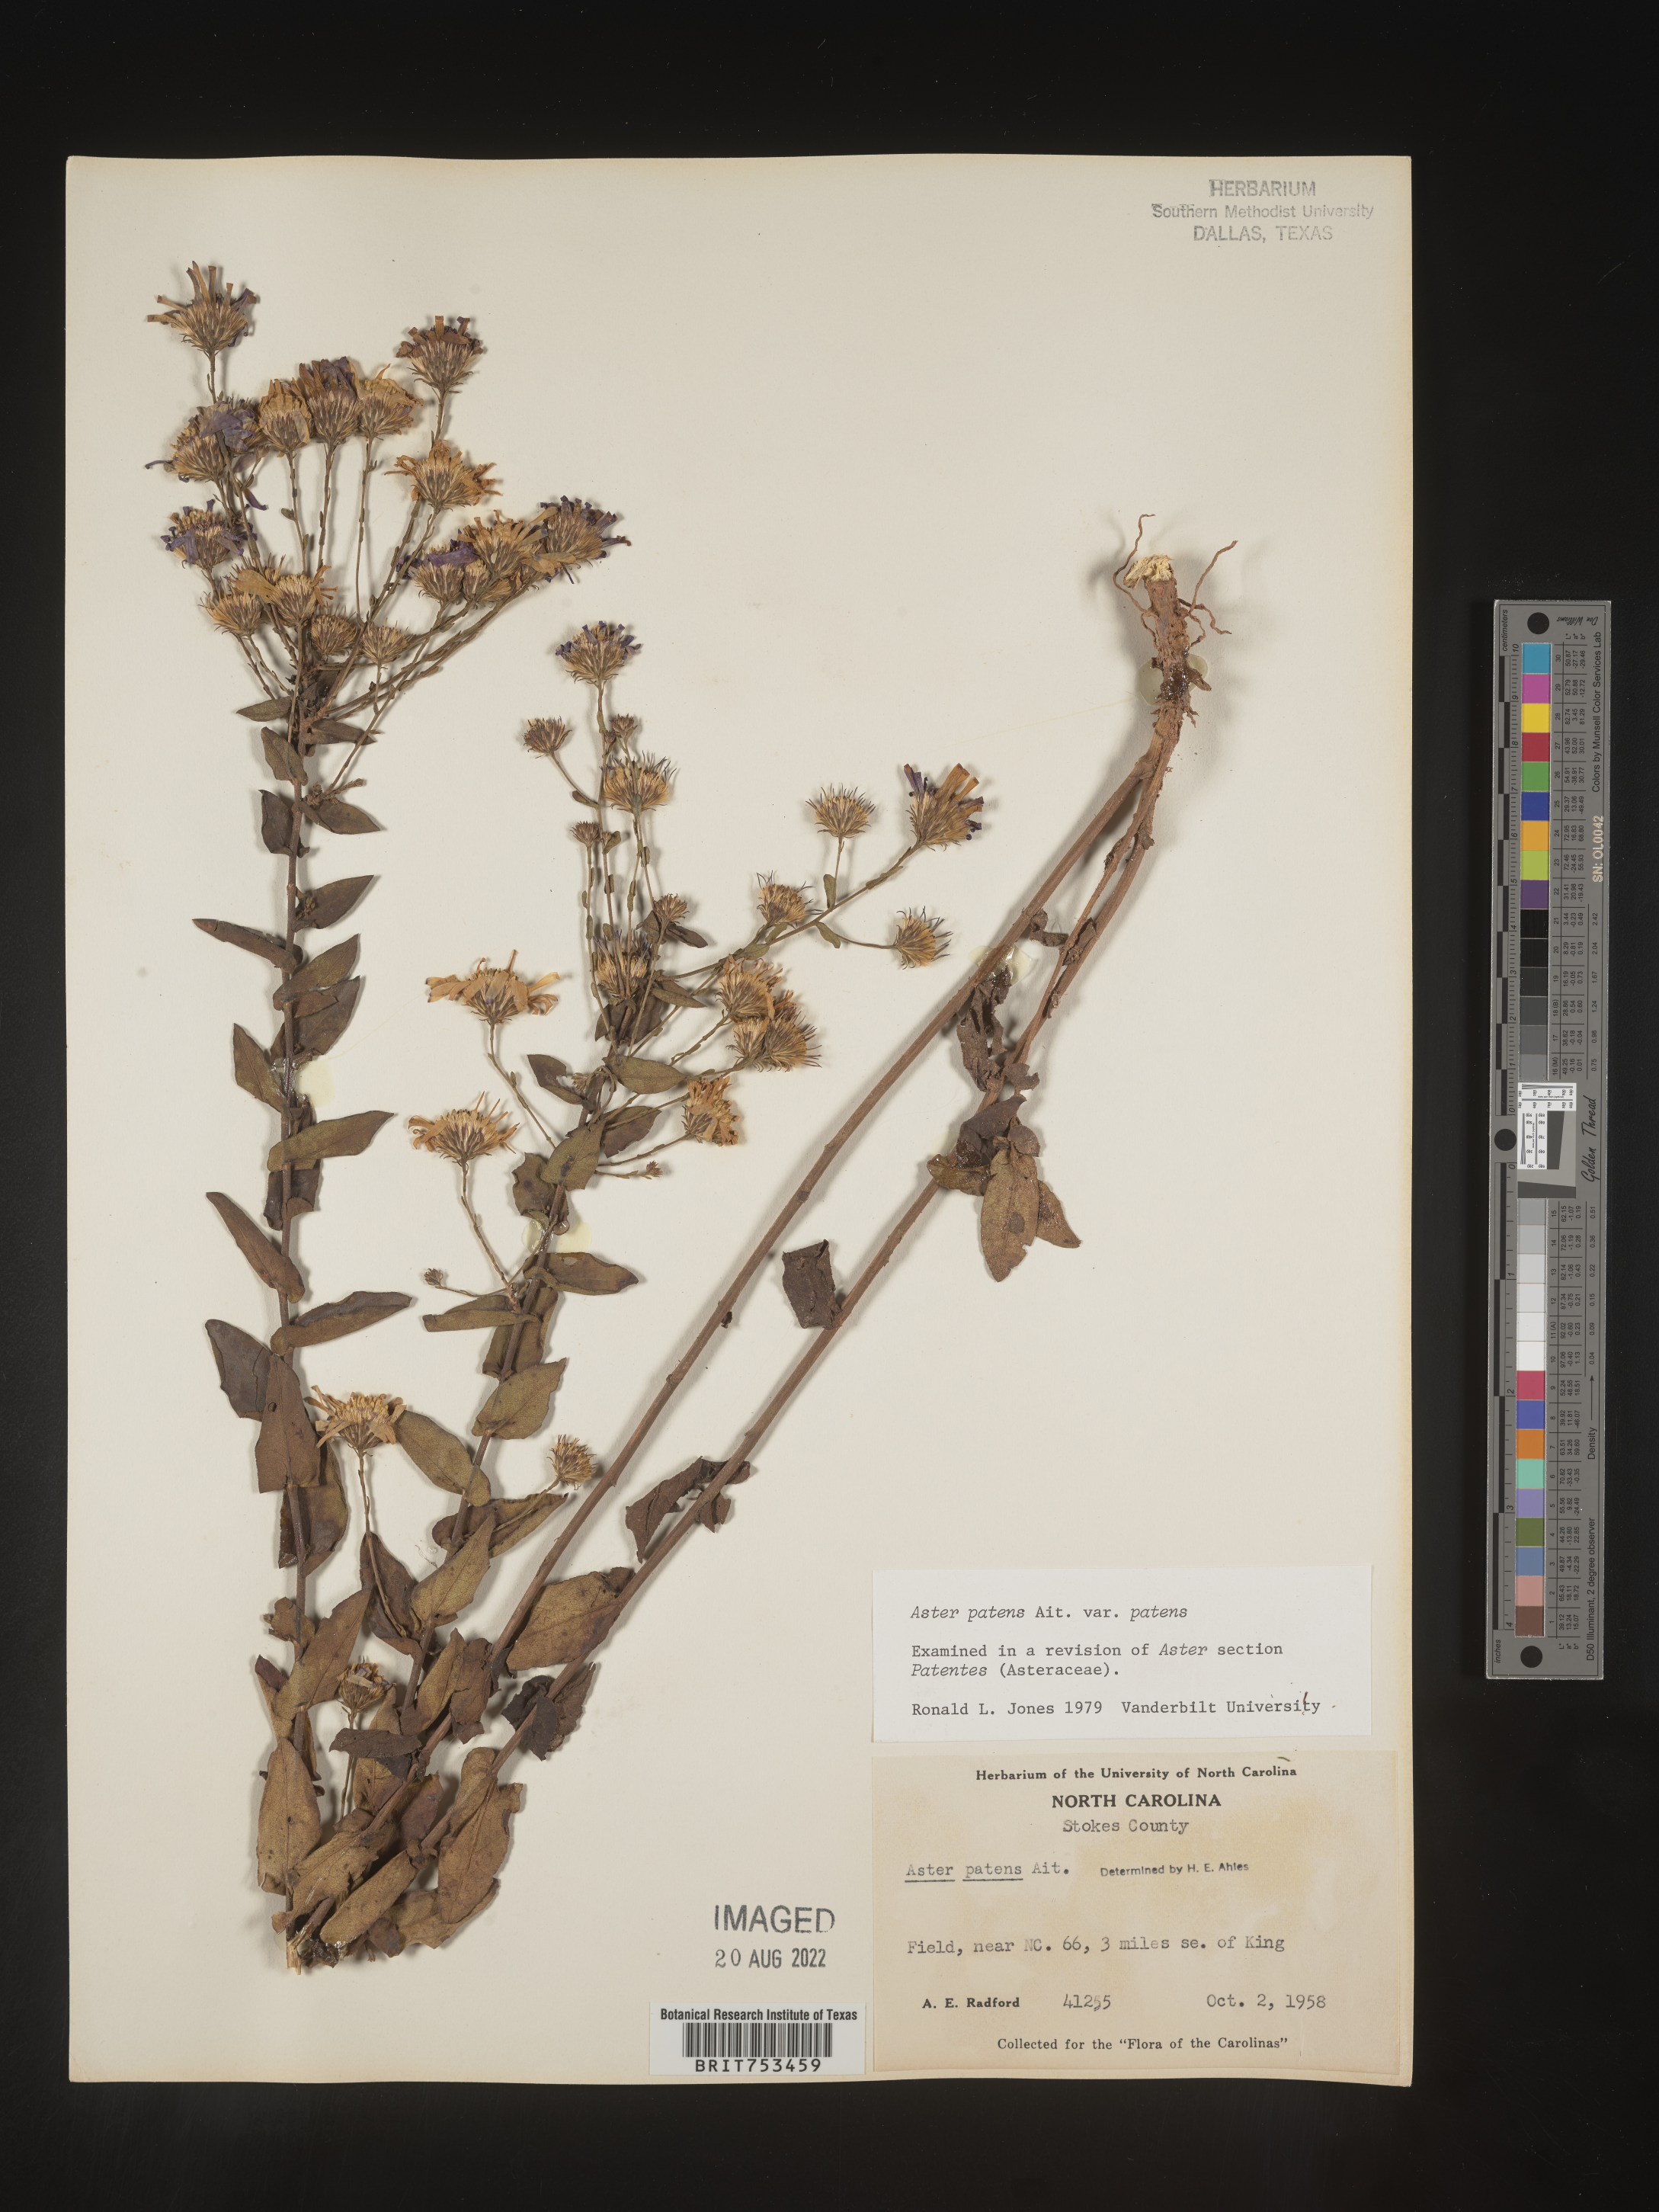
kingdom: Plantae
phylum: Tracheophyta
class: Magnoliopsida
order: Asterales
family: Asteraceae
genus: Symphyotrichum
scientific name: Symphyotrichum patens
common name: Late purple aster
